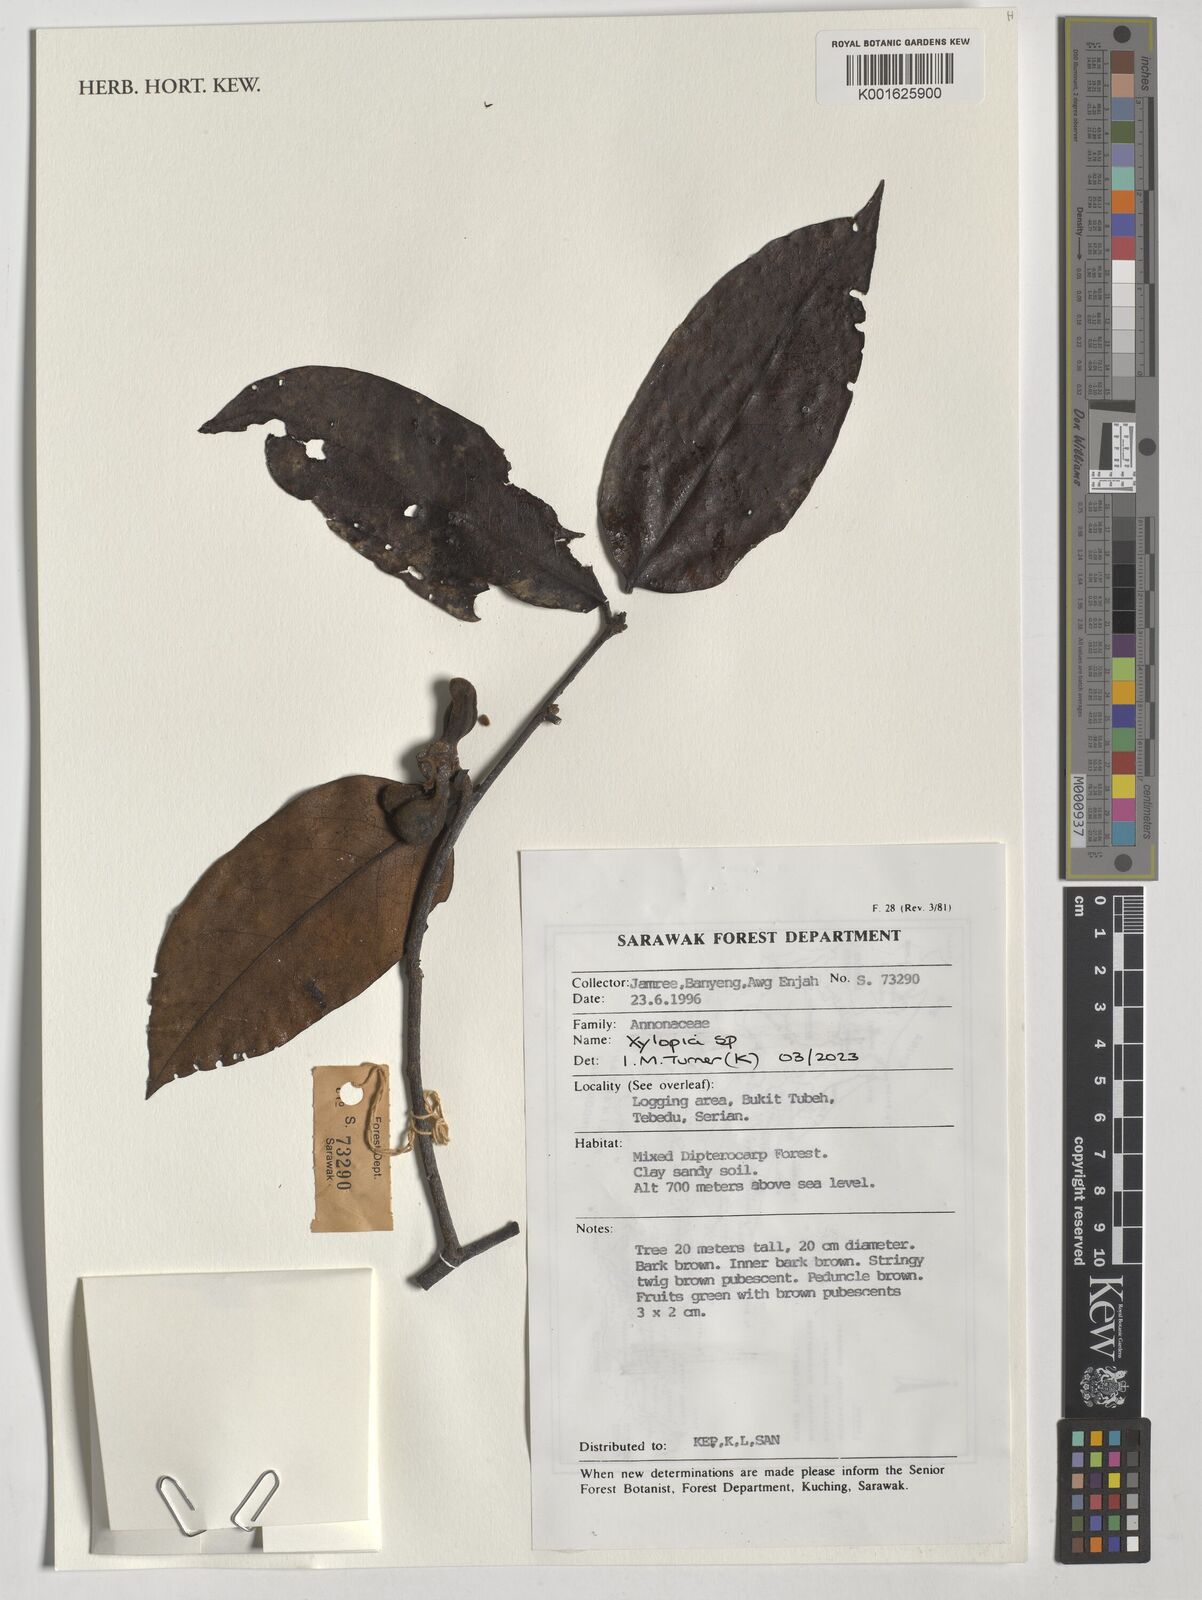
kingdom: Plantae
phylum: Tracheophyta
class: Magnoliopsida
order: Magnoliales
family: Annonaceae
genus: Xylopia
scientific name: Xylopia
